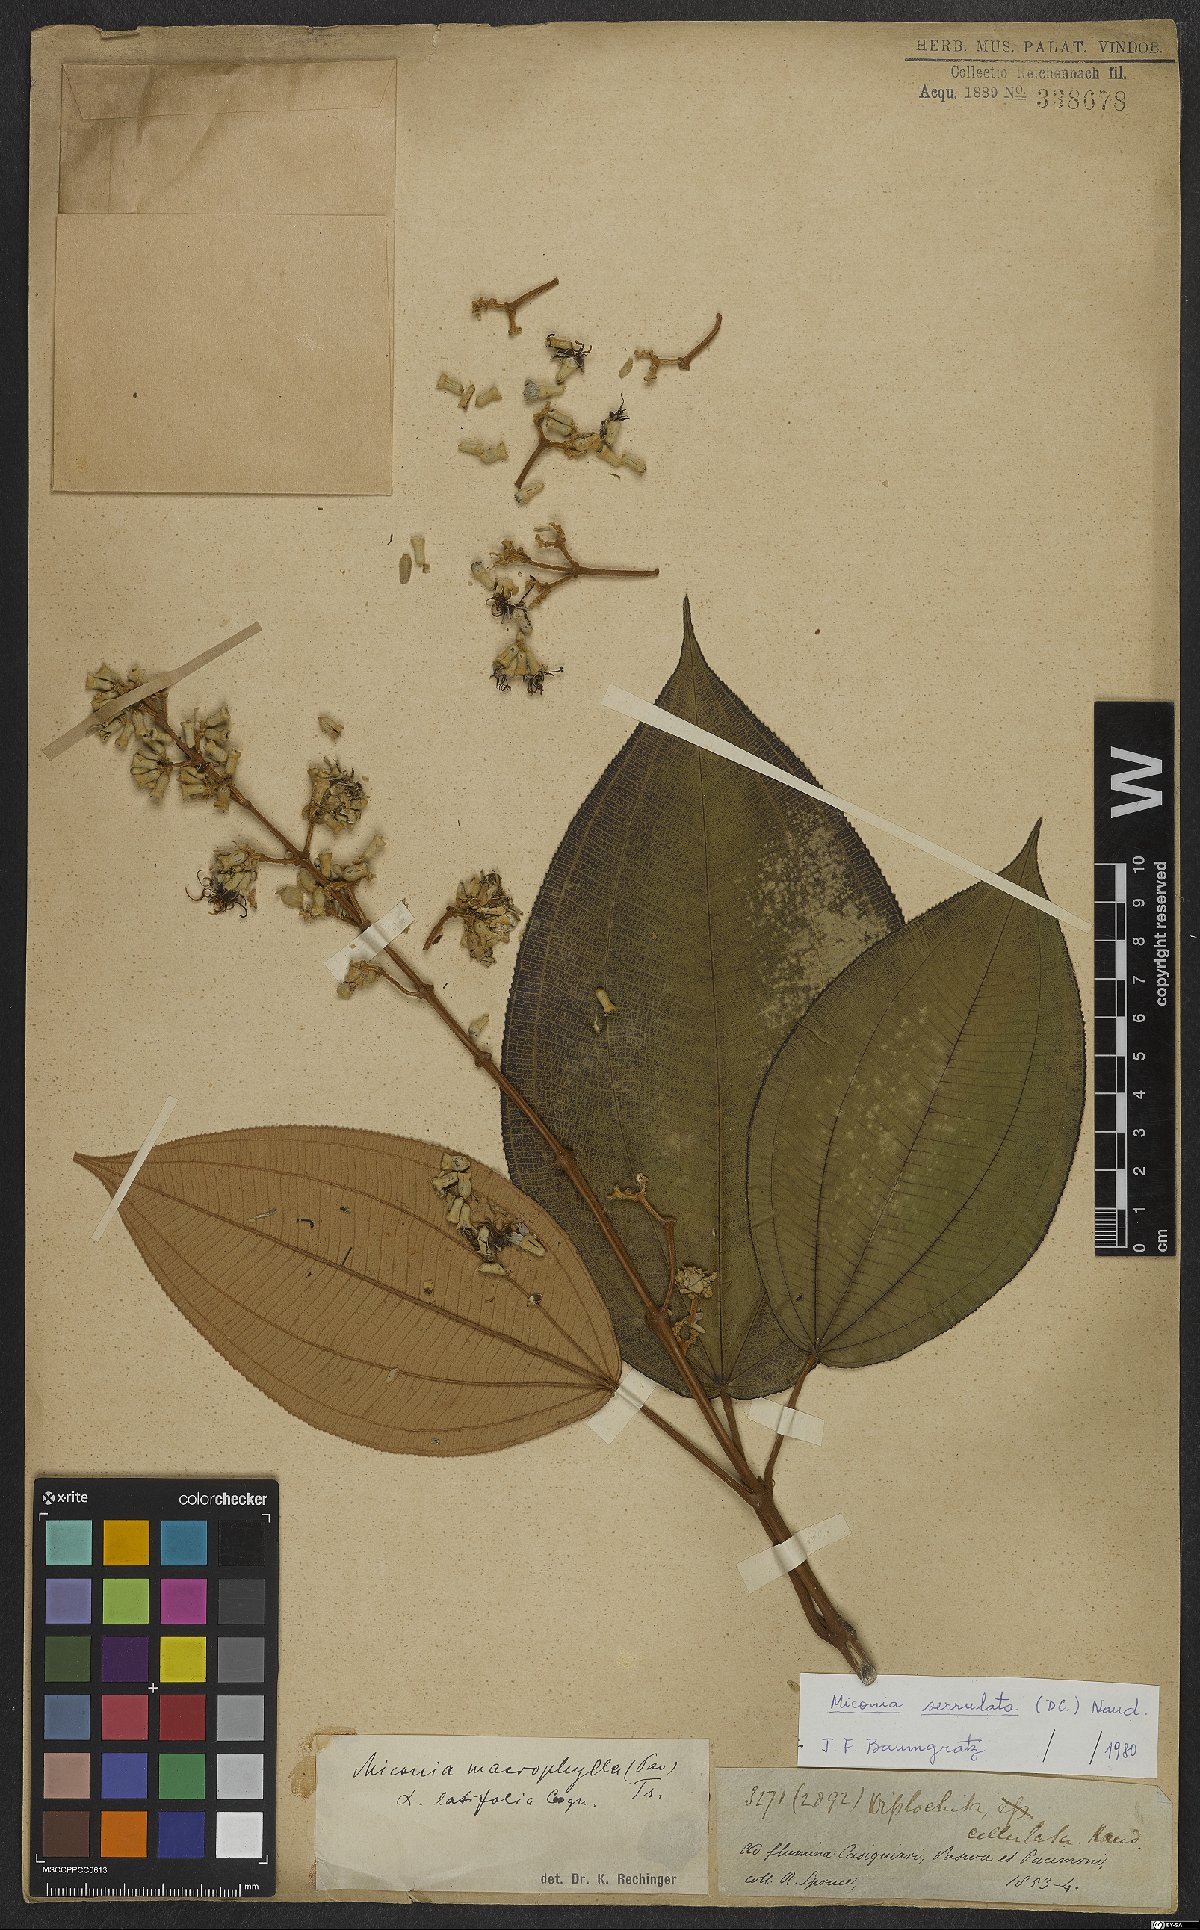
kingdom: Plantae
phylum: Tracheophyta
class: Magnoliopsida
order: Myrtales
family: Melastomataceae
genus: Miconia
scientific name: Miconia serrulata
